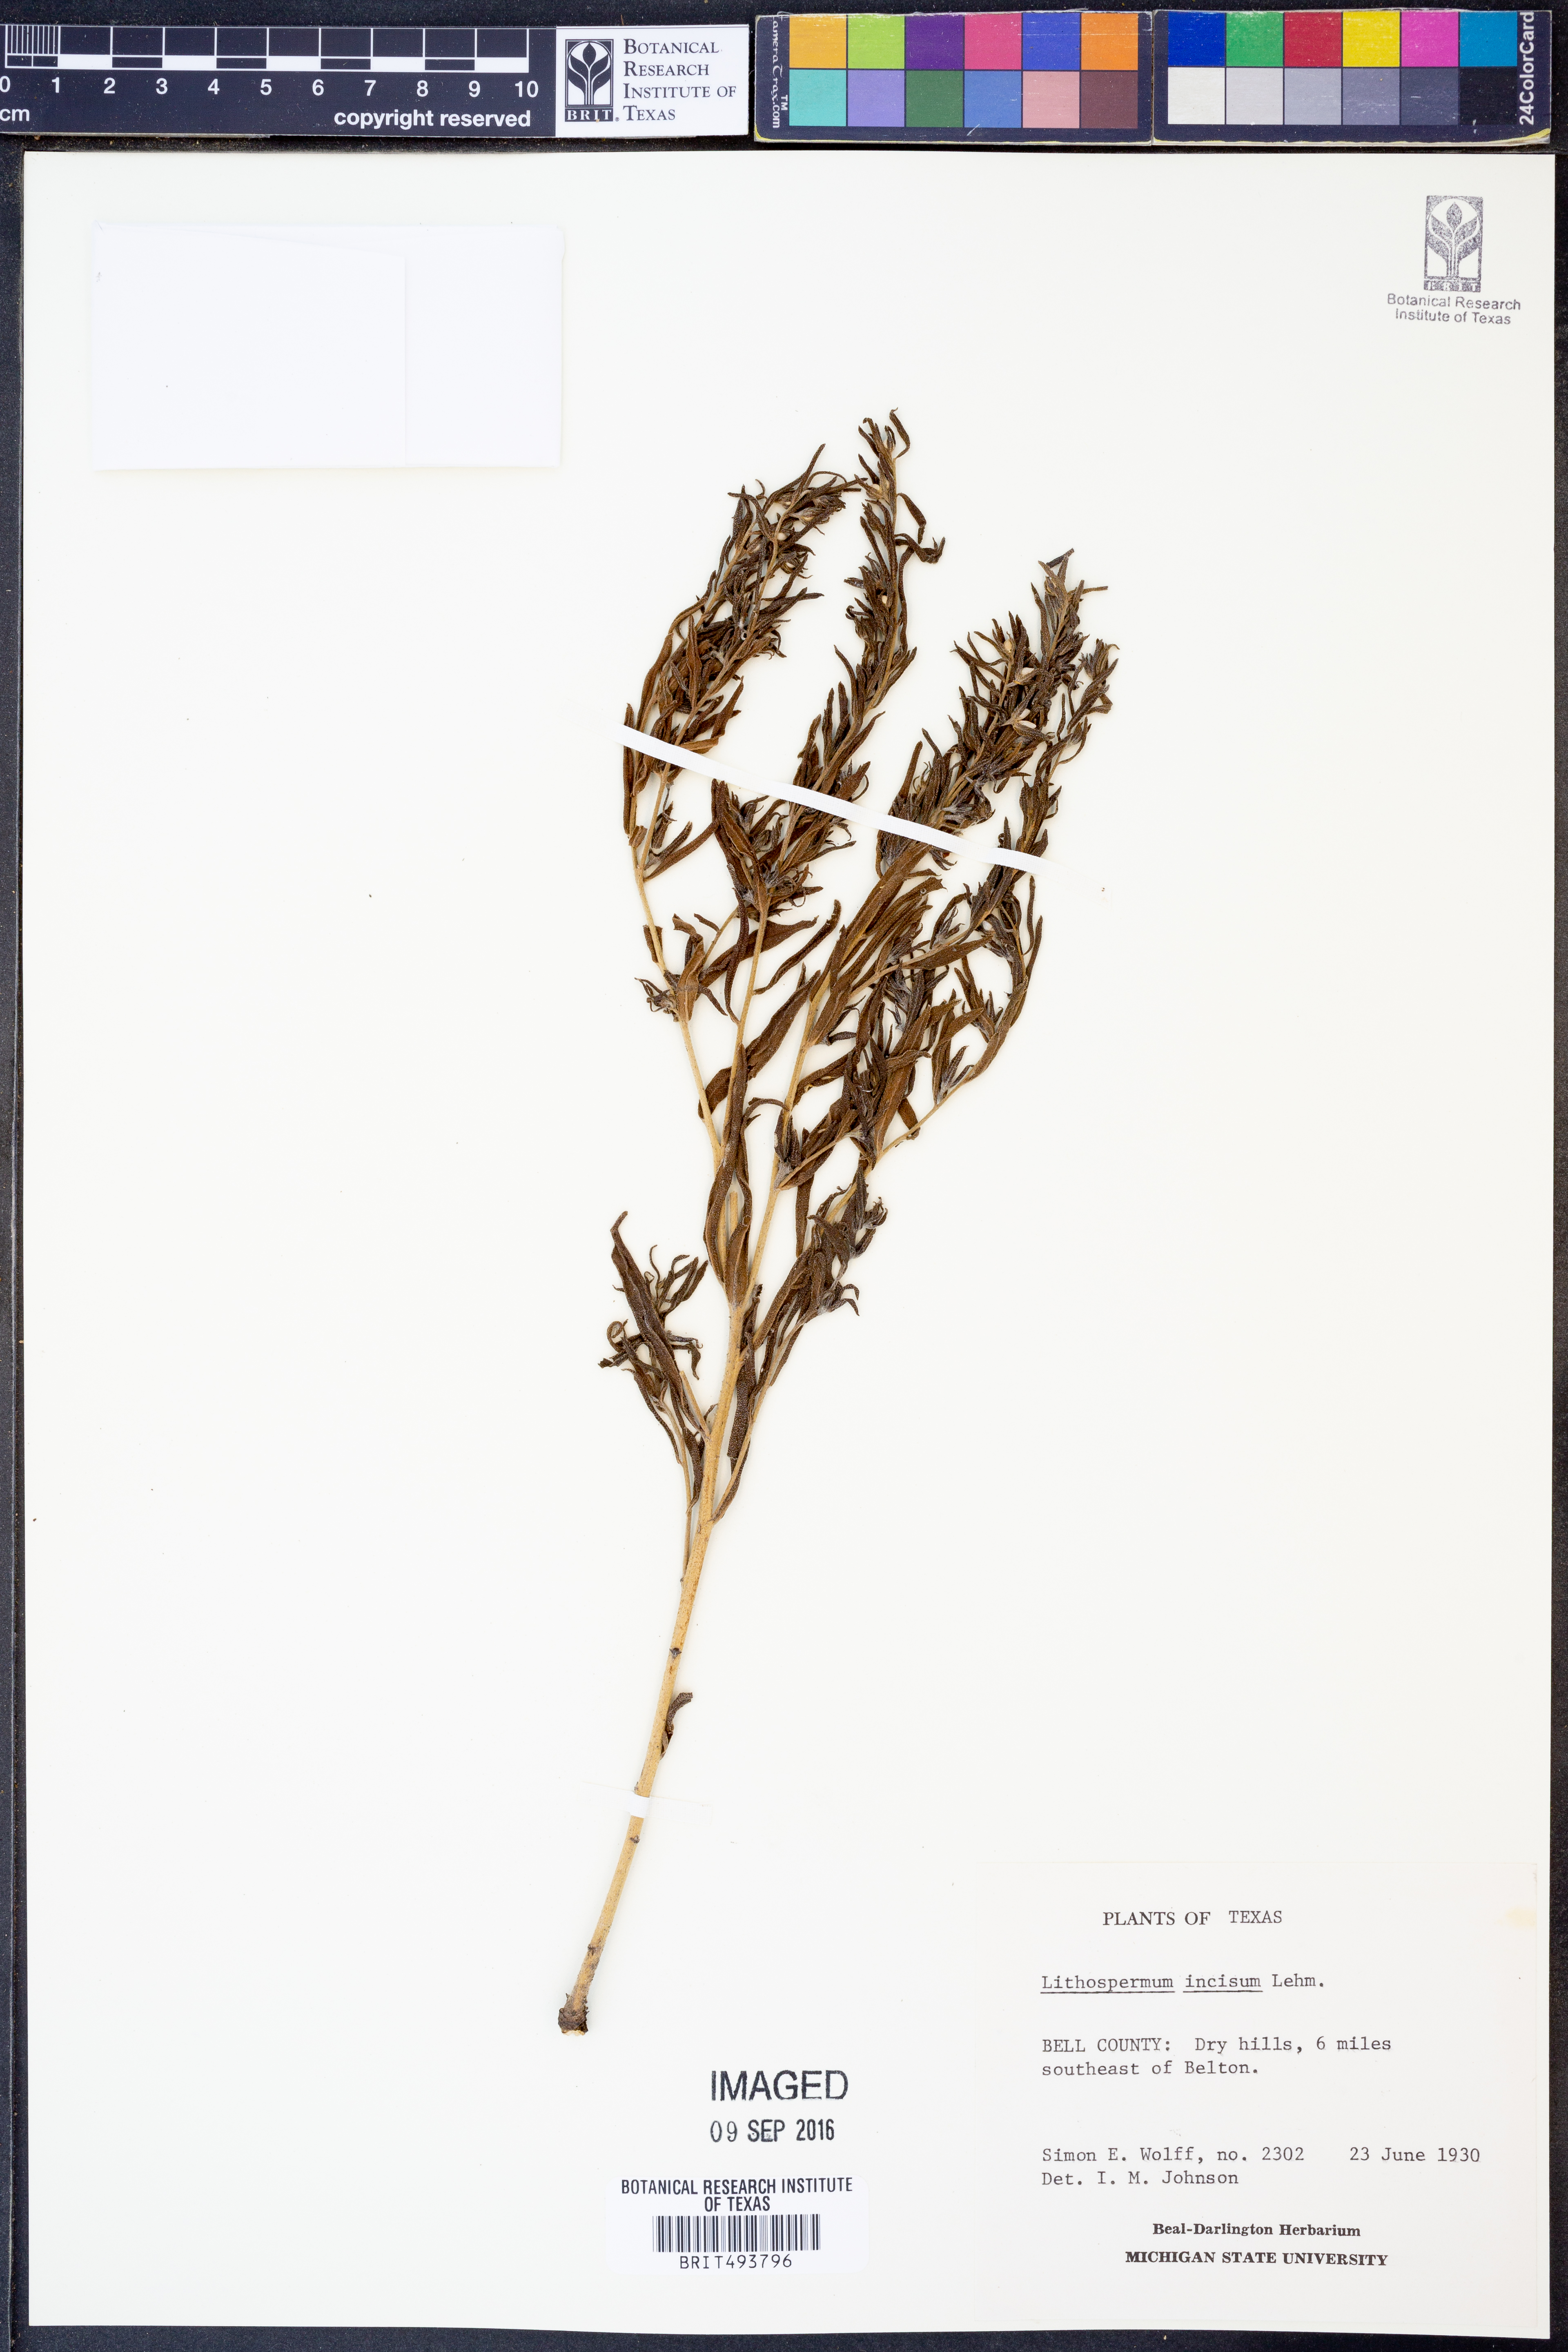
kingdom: Plantae
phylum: Tracheophyta
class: Magnoliopsida
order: Boraginales
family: Boraginaceae
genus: Lithospermum
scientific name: Lithospermum incisum
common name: Fringed gromwell
